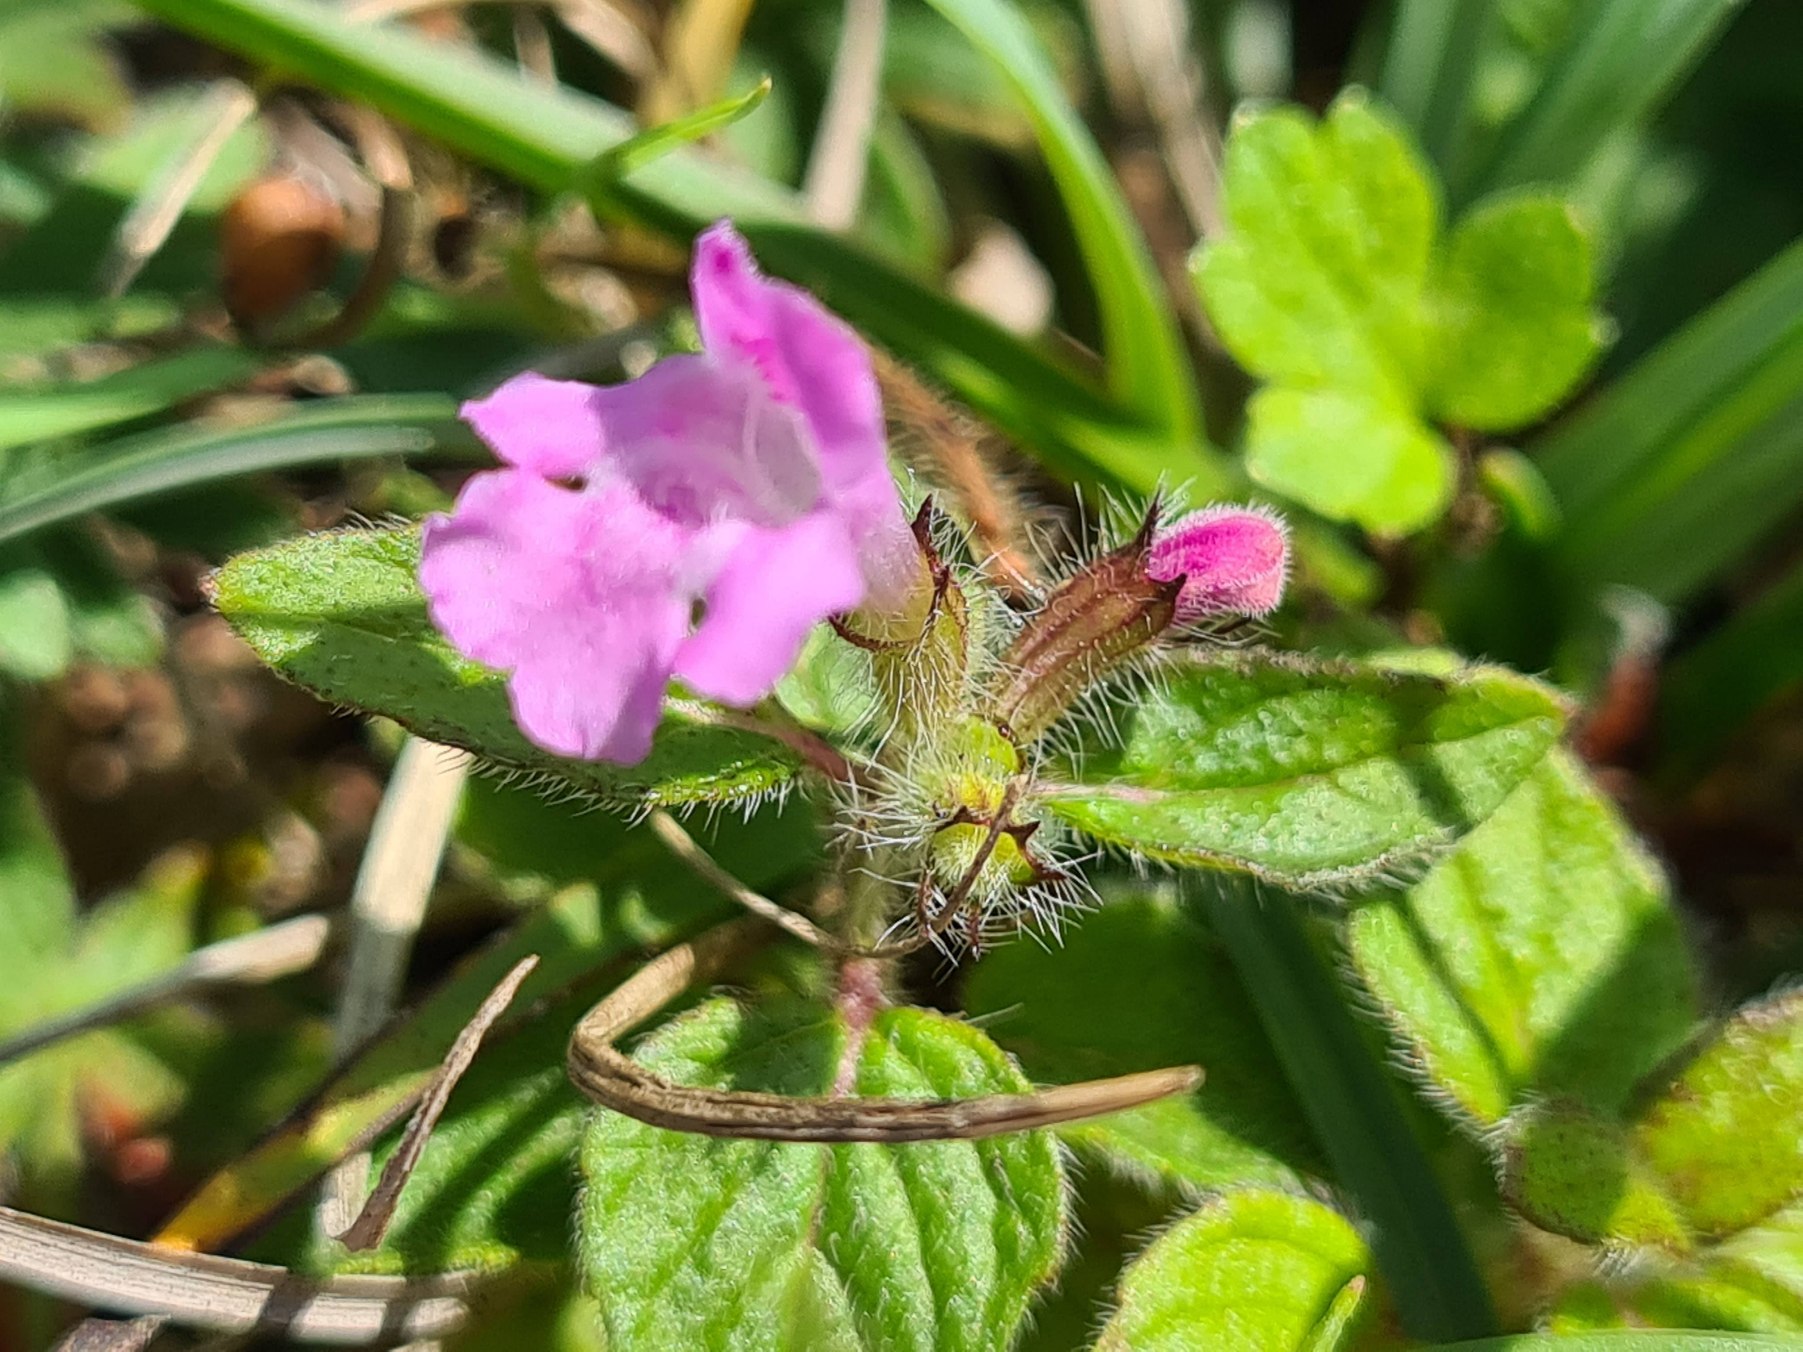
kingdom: Plantae
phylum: Tracheophyta
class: Magnoliopsida
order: Lamiales
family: Lamiaceae
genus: Clinopodium
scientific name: Clinopodium vulgare
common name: Kransbørste
